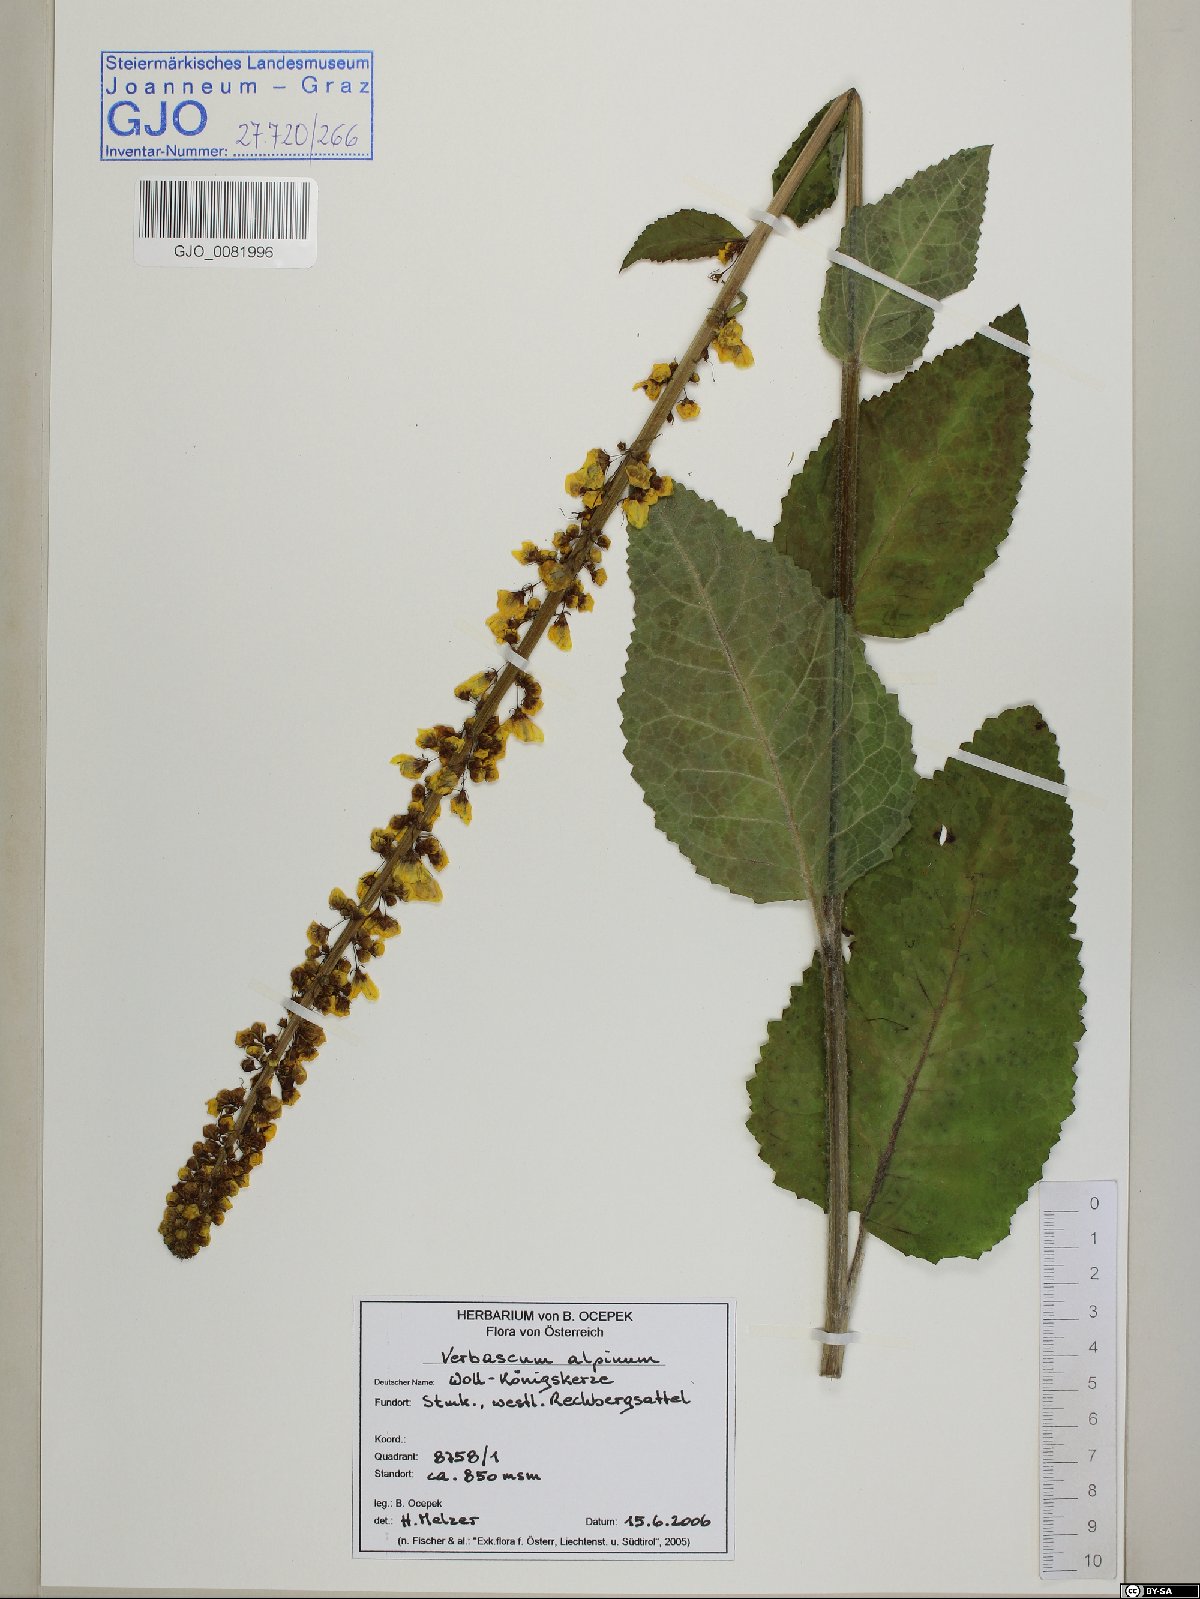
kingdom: Plantae
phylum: Tracheophyta
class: Magnoliopsida
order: Lamiales
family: Scrophulariaceae
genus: Verbascum
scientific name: Verbascum alpinum
